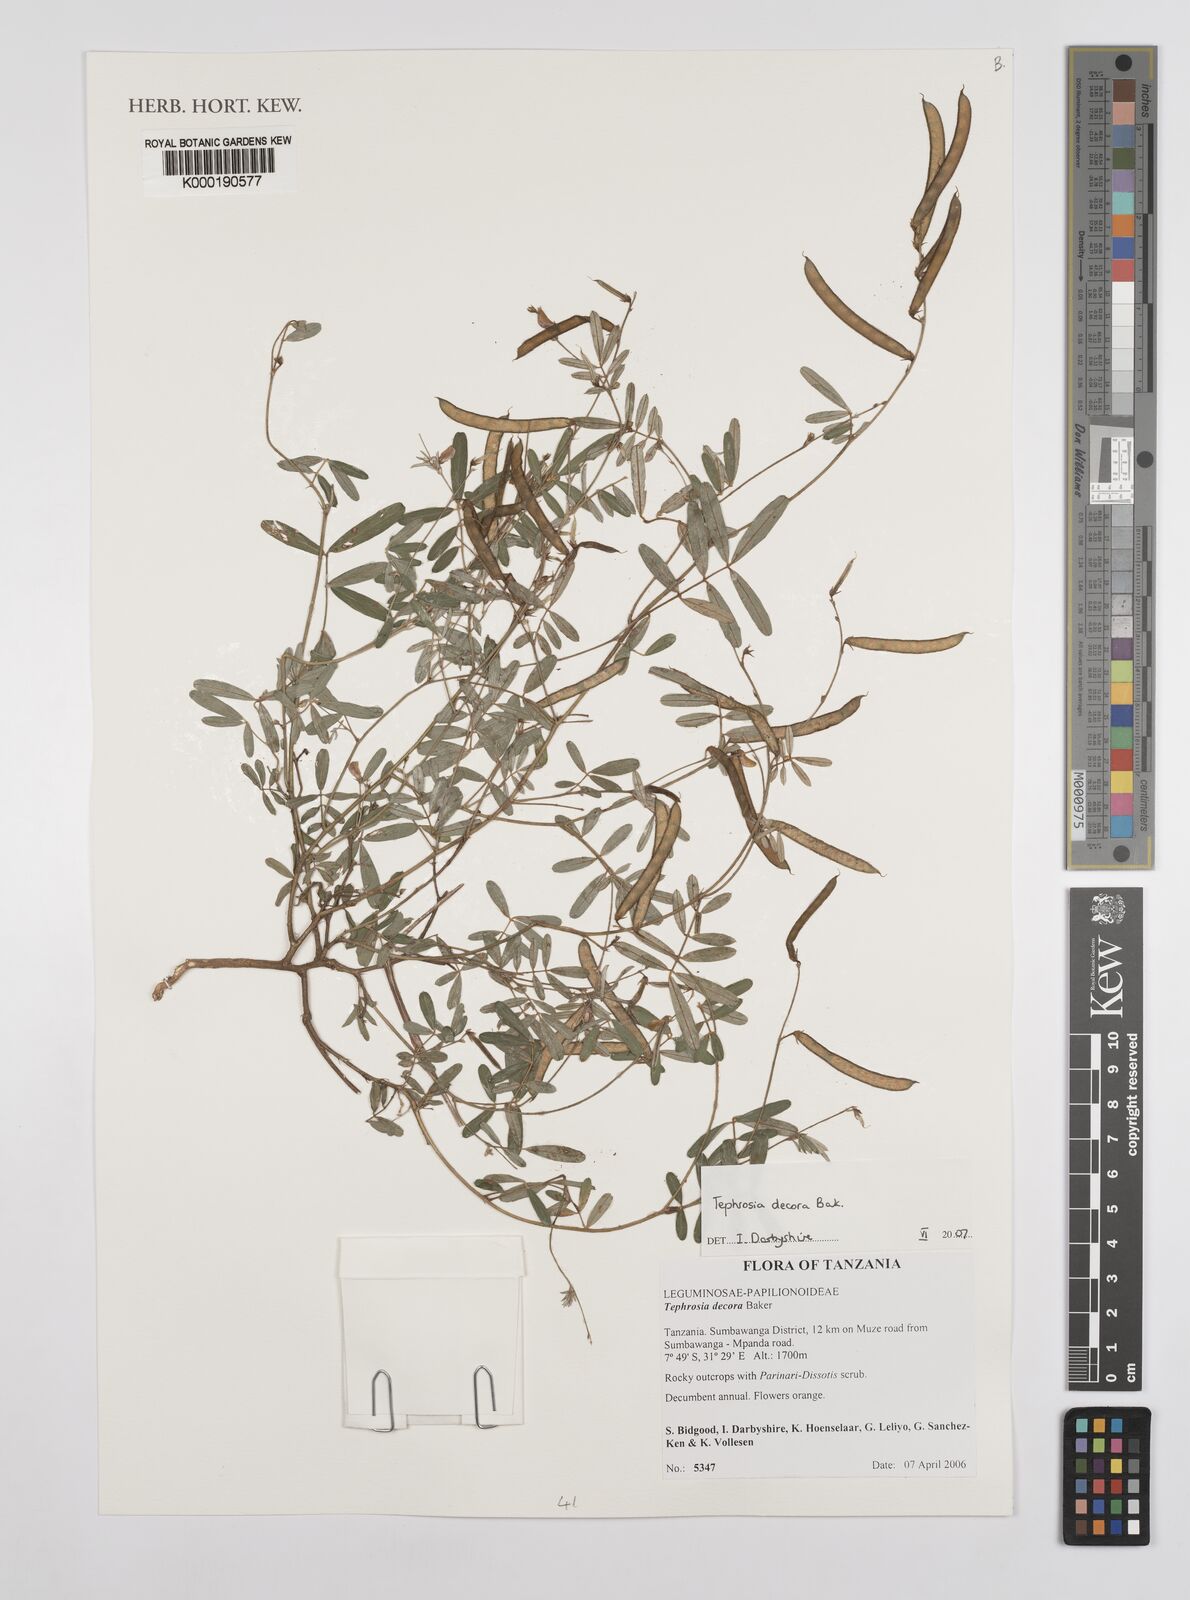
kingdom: Plantae
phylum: Tracheophyta
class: Magnoliopsida
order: Fabales
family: Fabaceae
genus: Tephrosia
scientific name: Tephrosia decora
